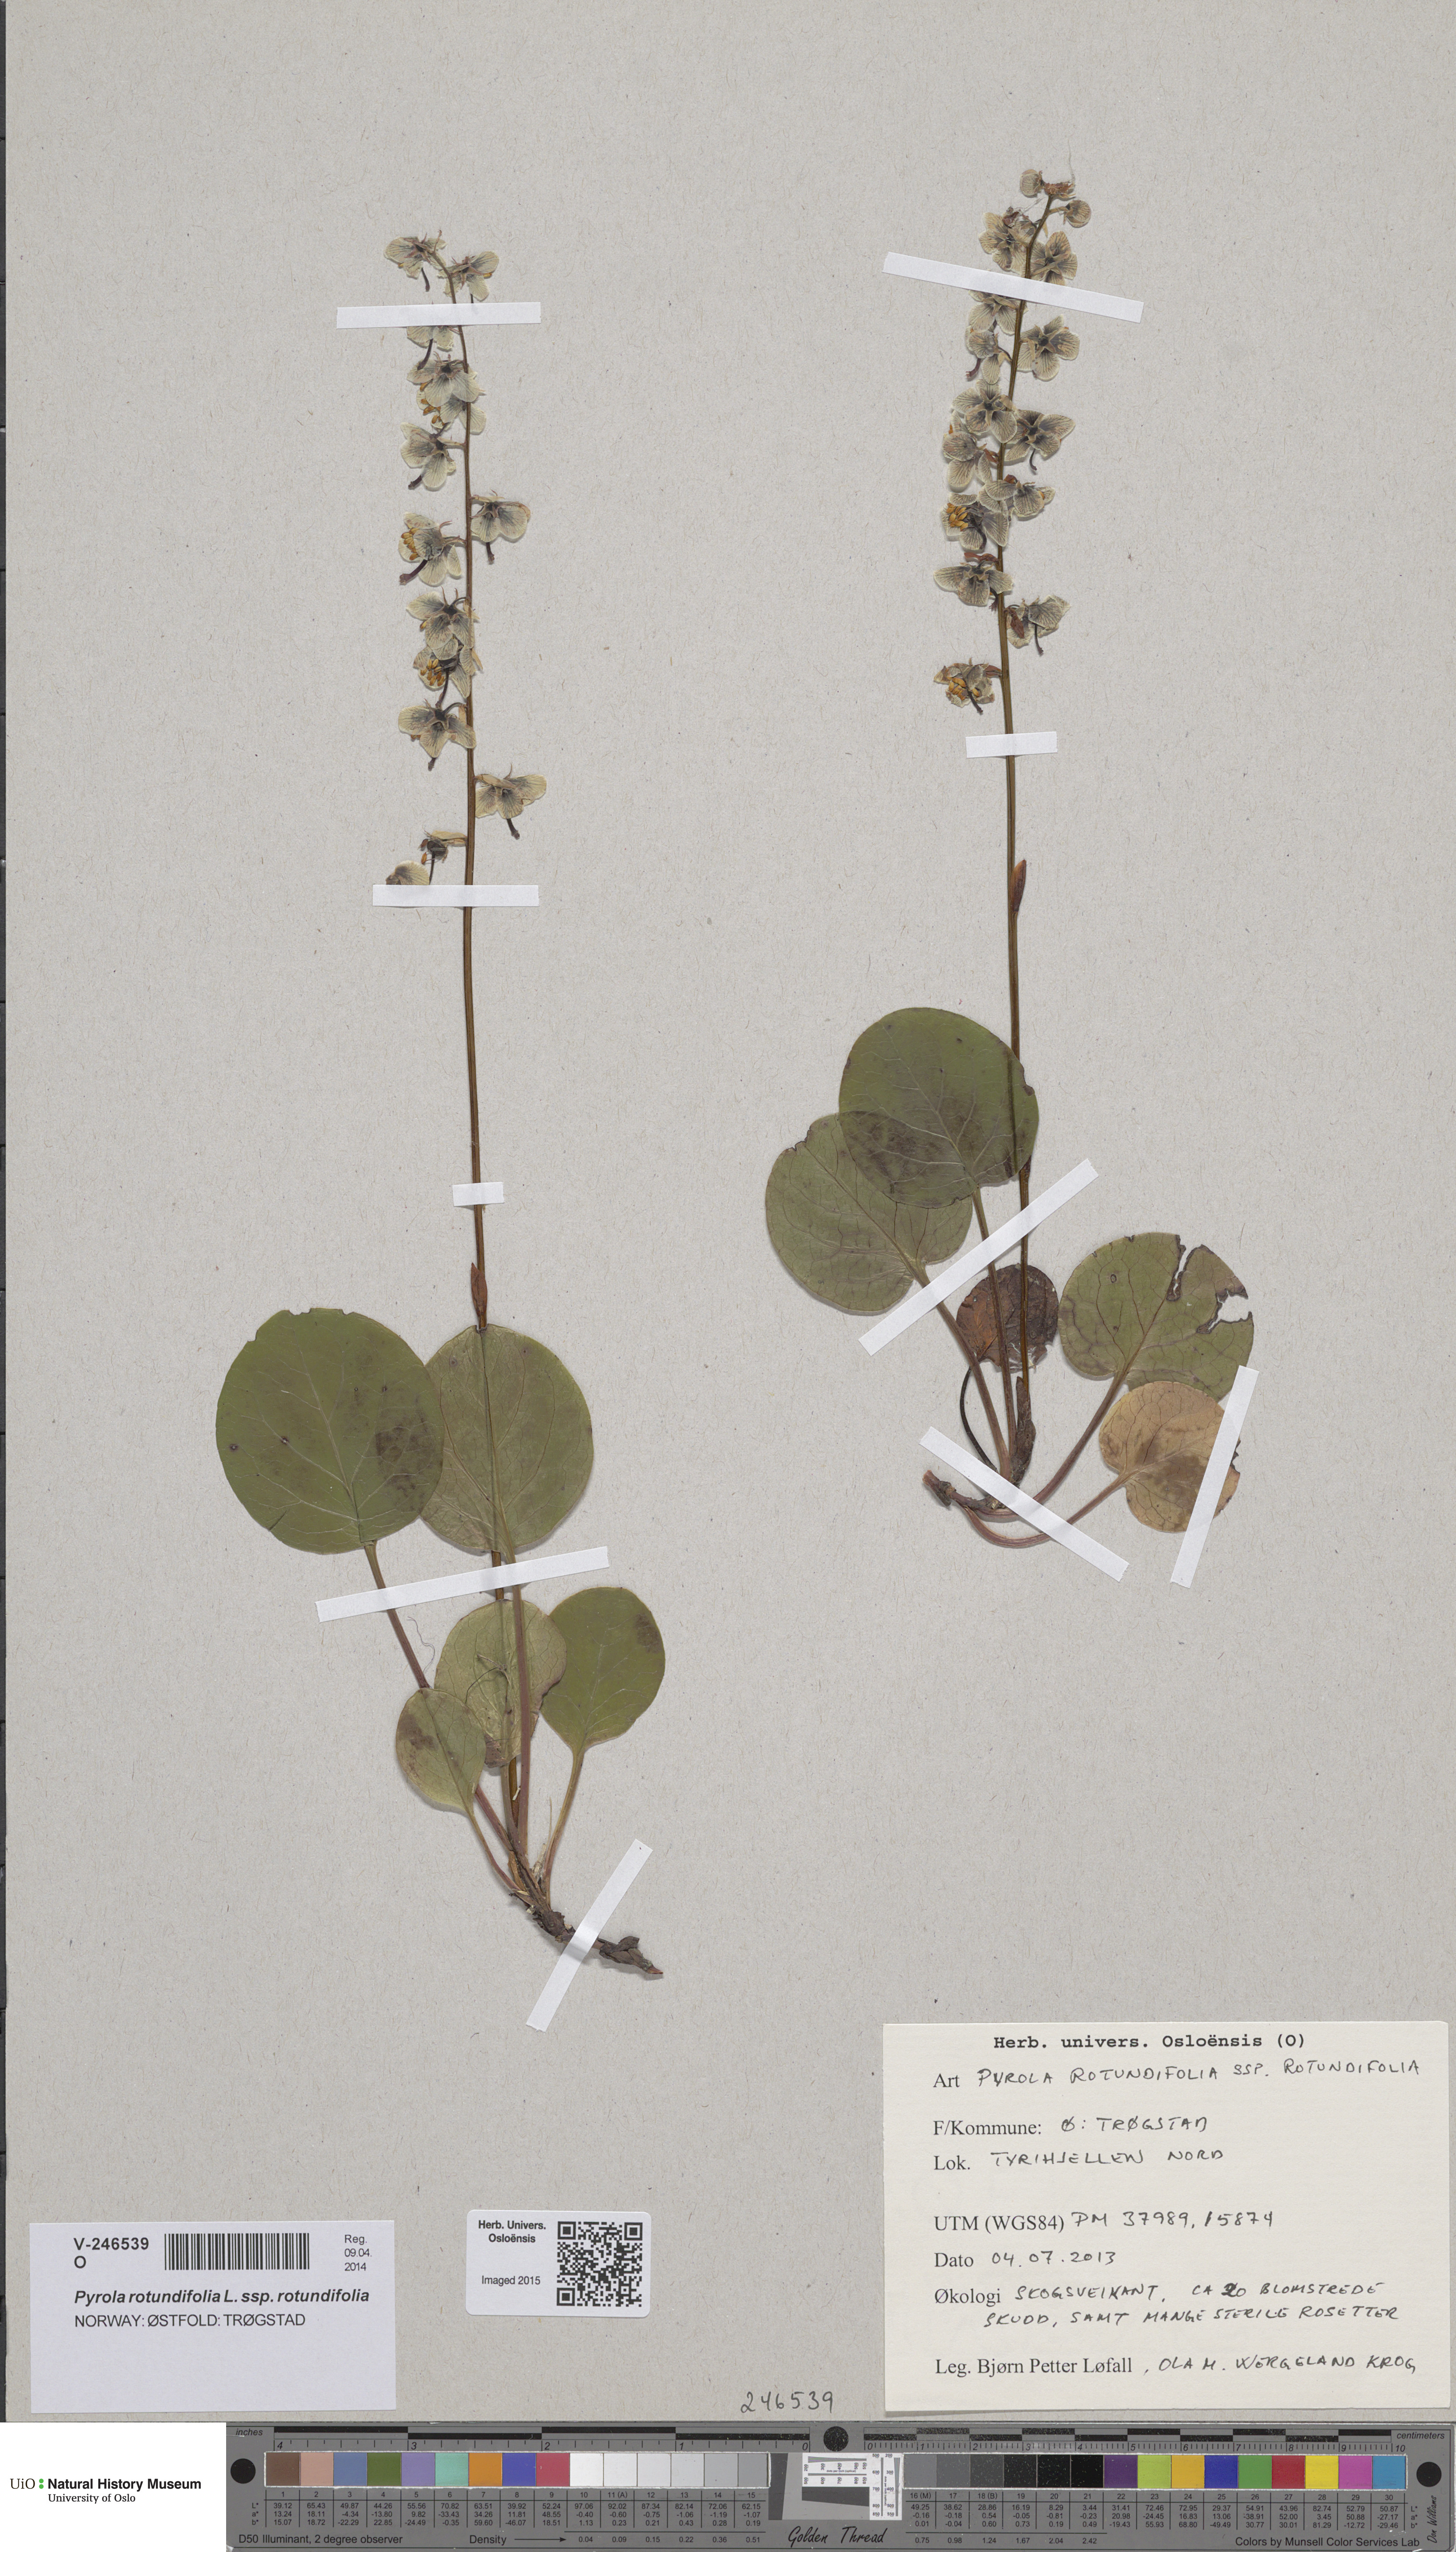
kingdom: Plantae
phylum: Tracheophyta
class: Magnoliopsida
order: Ericales
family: Ericaceae
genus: Pyrola
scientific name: Pyrola rotundifolia
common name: Round-leaved wintergreen
